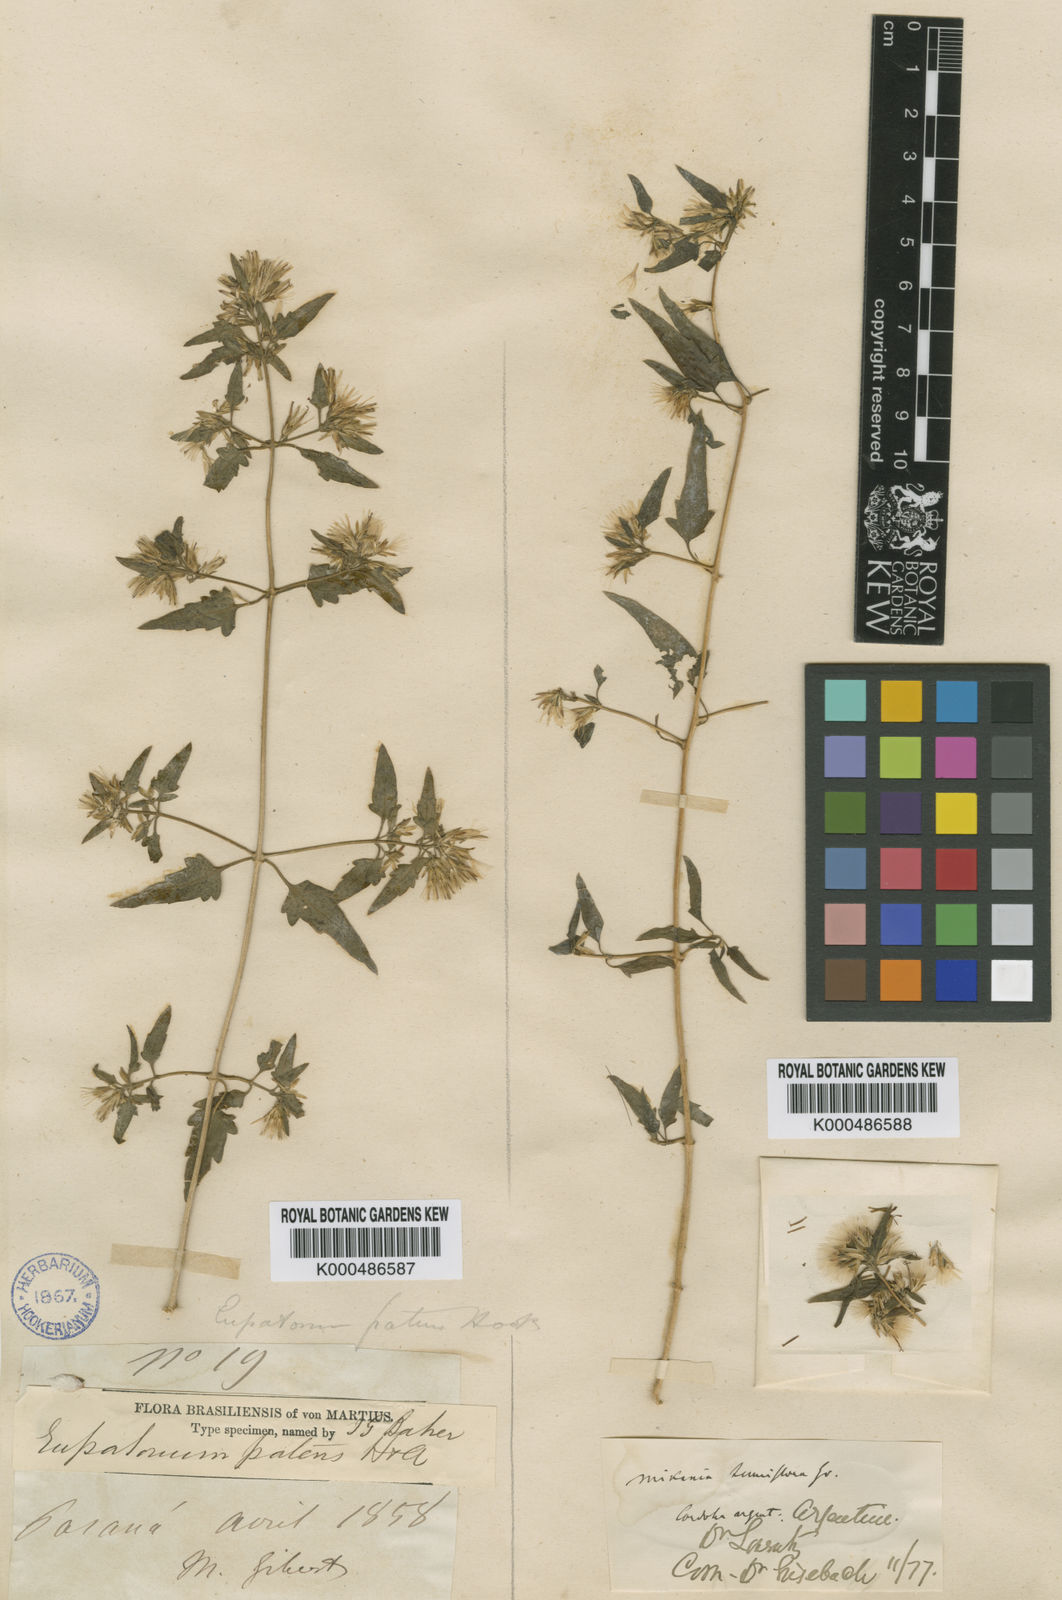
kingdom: Plantae
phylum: Tracheophyta
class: Magnoliopsida
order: Asterales
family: Asteraceae
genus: Austrobrickellia
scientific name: Austrobrickellia patens
